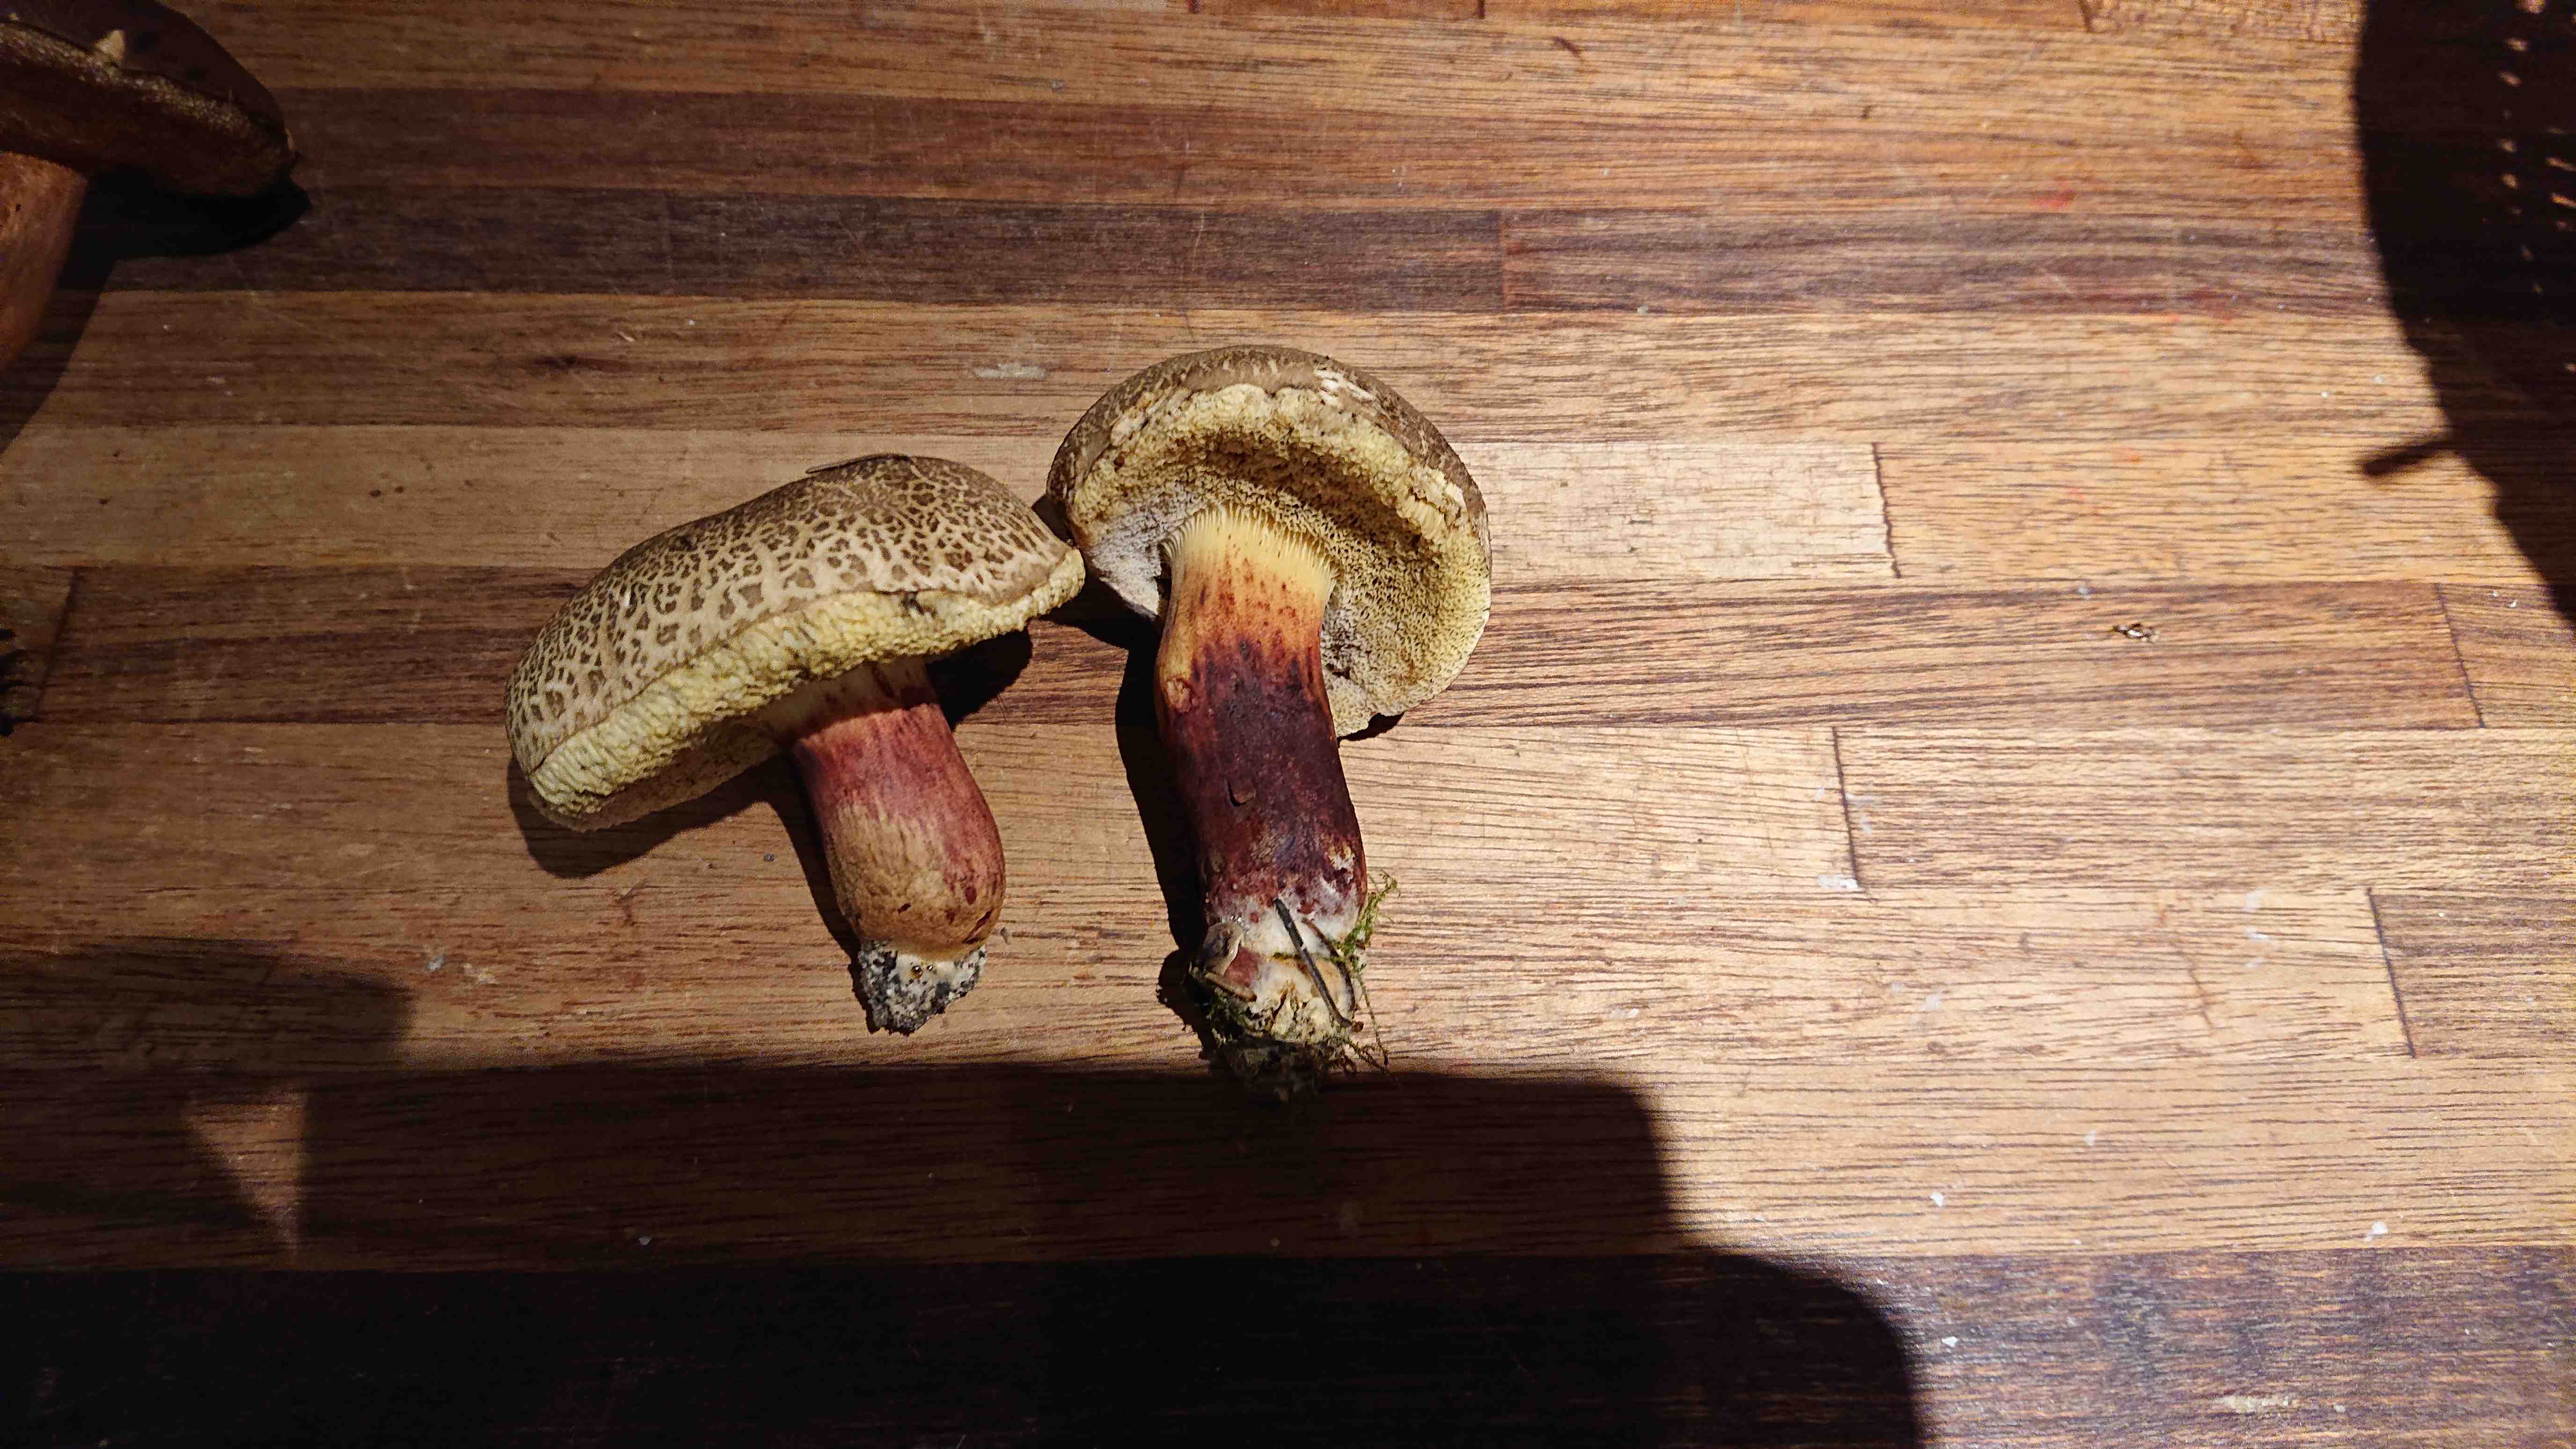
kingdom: Fungi
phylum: Basidiomycota
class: Agaricomycetes
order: Boletales
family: Boletaceae
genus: Xerocomellus
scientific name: Xerocomellus chrysenteron
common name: rødsprukken rørhat
